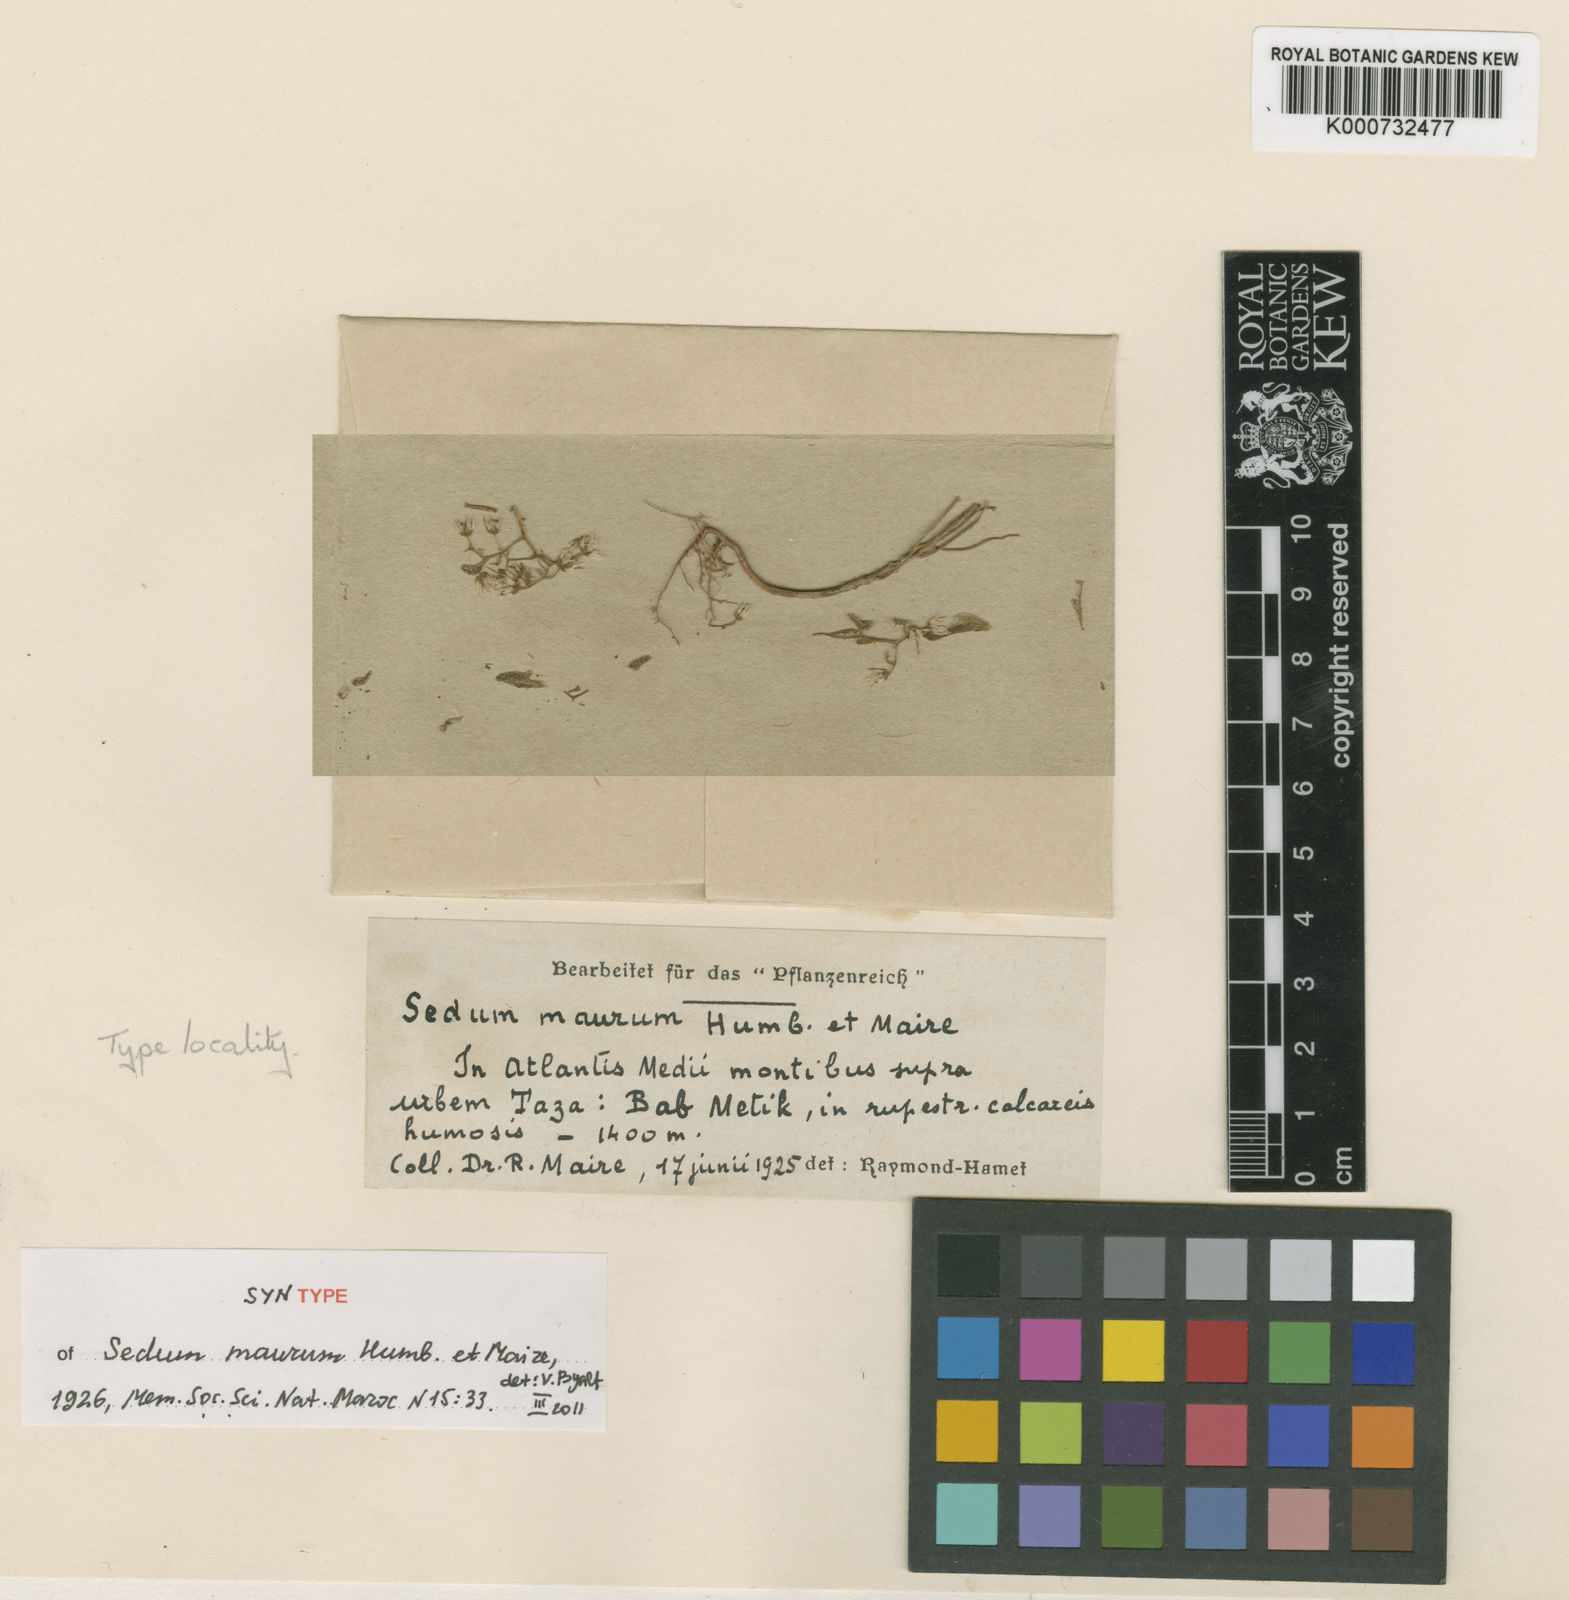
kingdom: Plantae
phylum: Tracheophyta
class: Magnoliopsida
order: Saxifragales
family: Crassulaceae
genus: Sedum
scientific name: Sedum maurum
